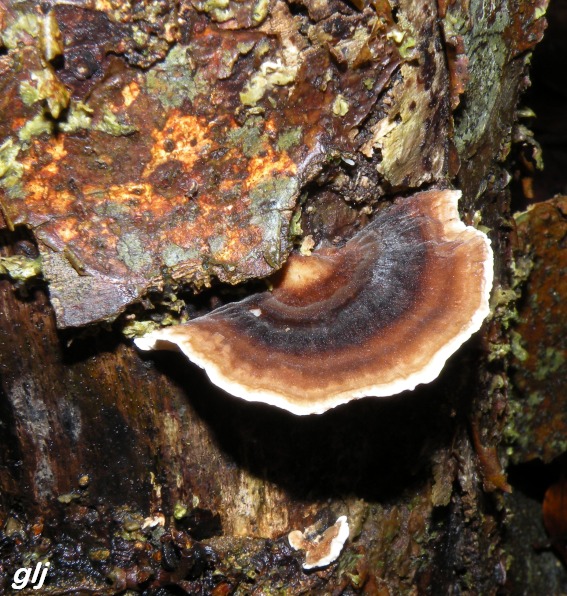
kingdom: Fungi
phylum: Basidiomycota
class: Agaricomycetes
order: Polyporales
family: Polyporaceae
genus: Trametes
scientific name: Trametes versicolor
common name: broget læderporesvamp
